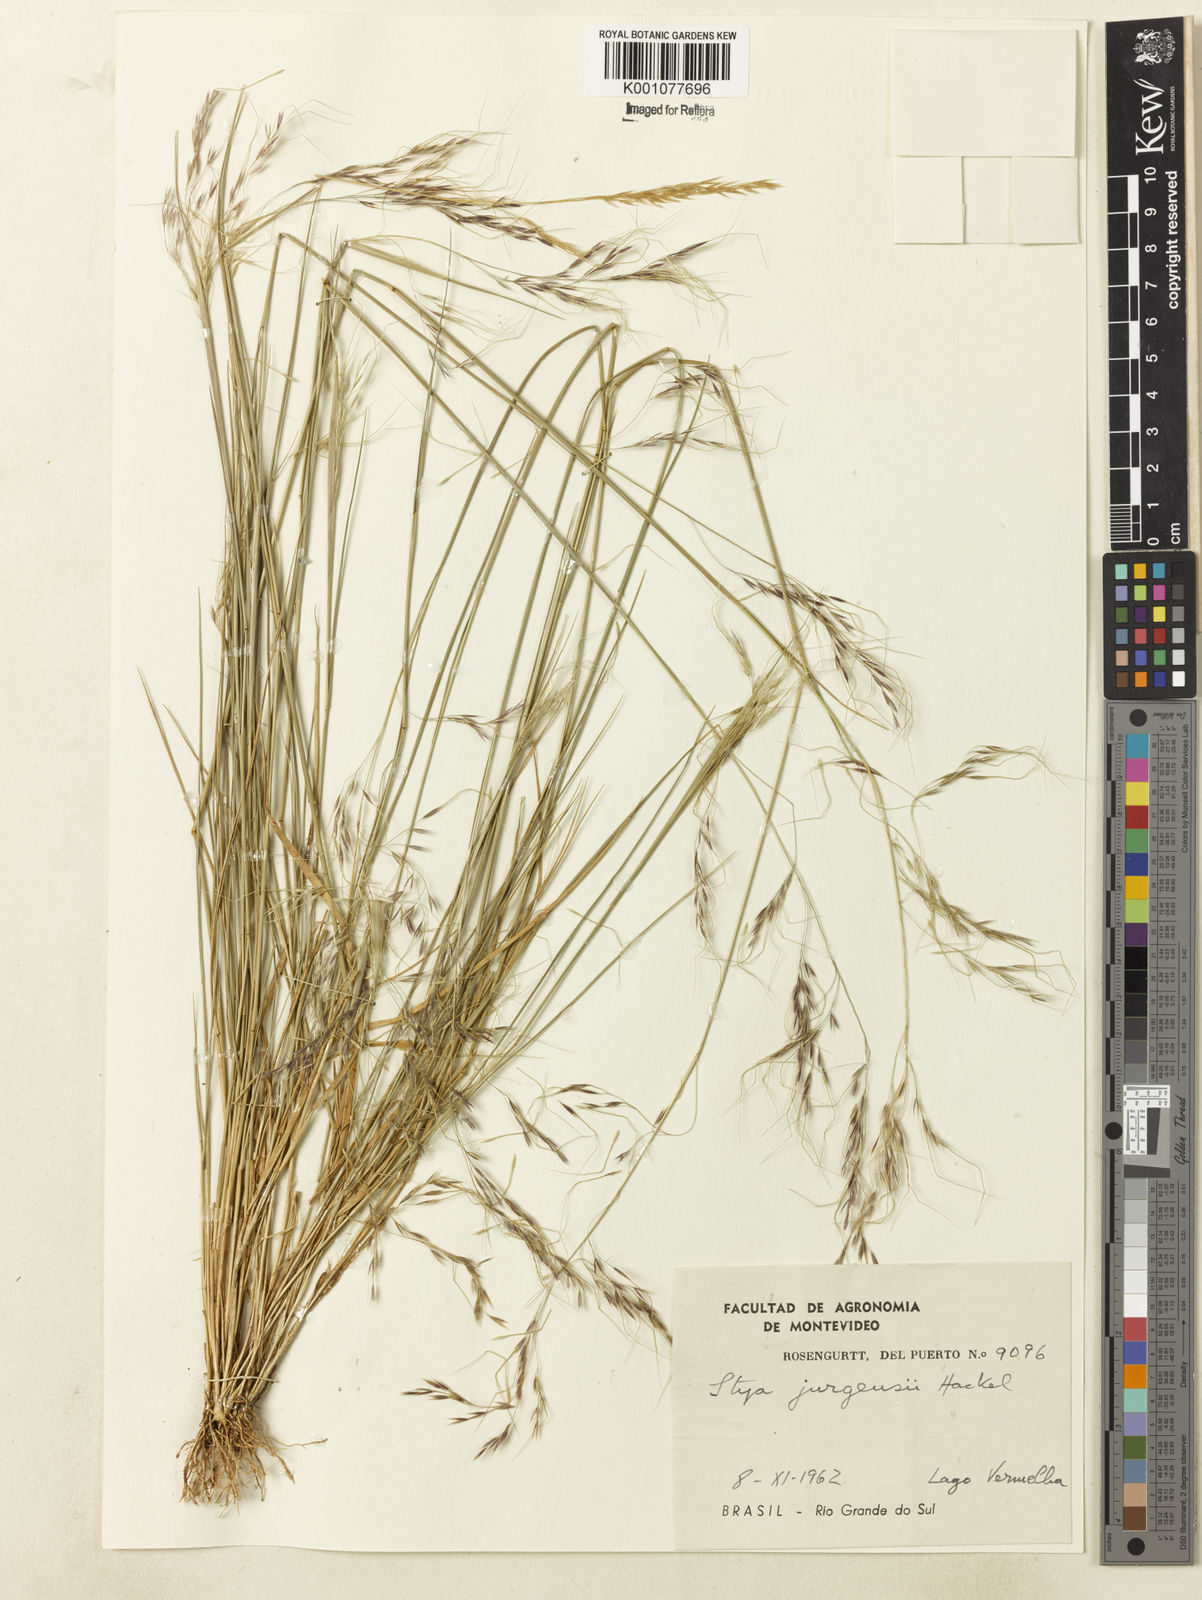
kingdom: Plantae
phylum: Tracheophyta
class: Liliopsida
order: Poales
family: Poaceae
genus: Nassella
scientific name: Nassella juergensii
